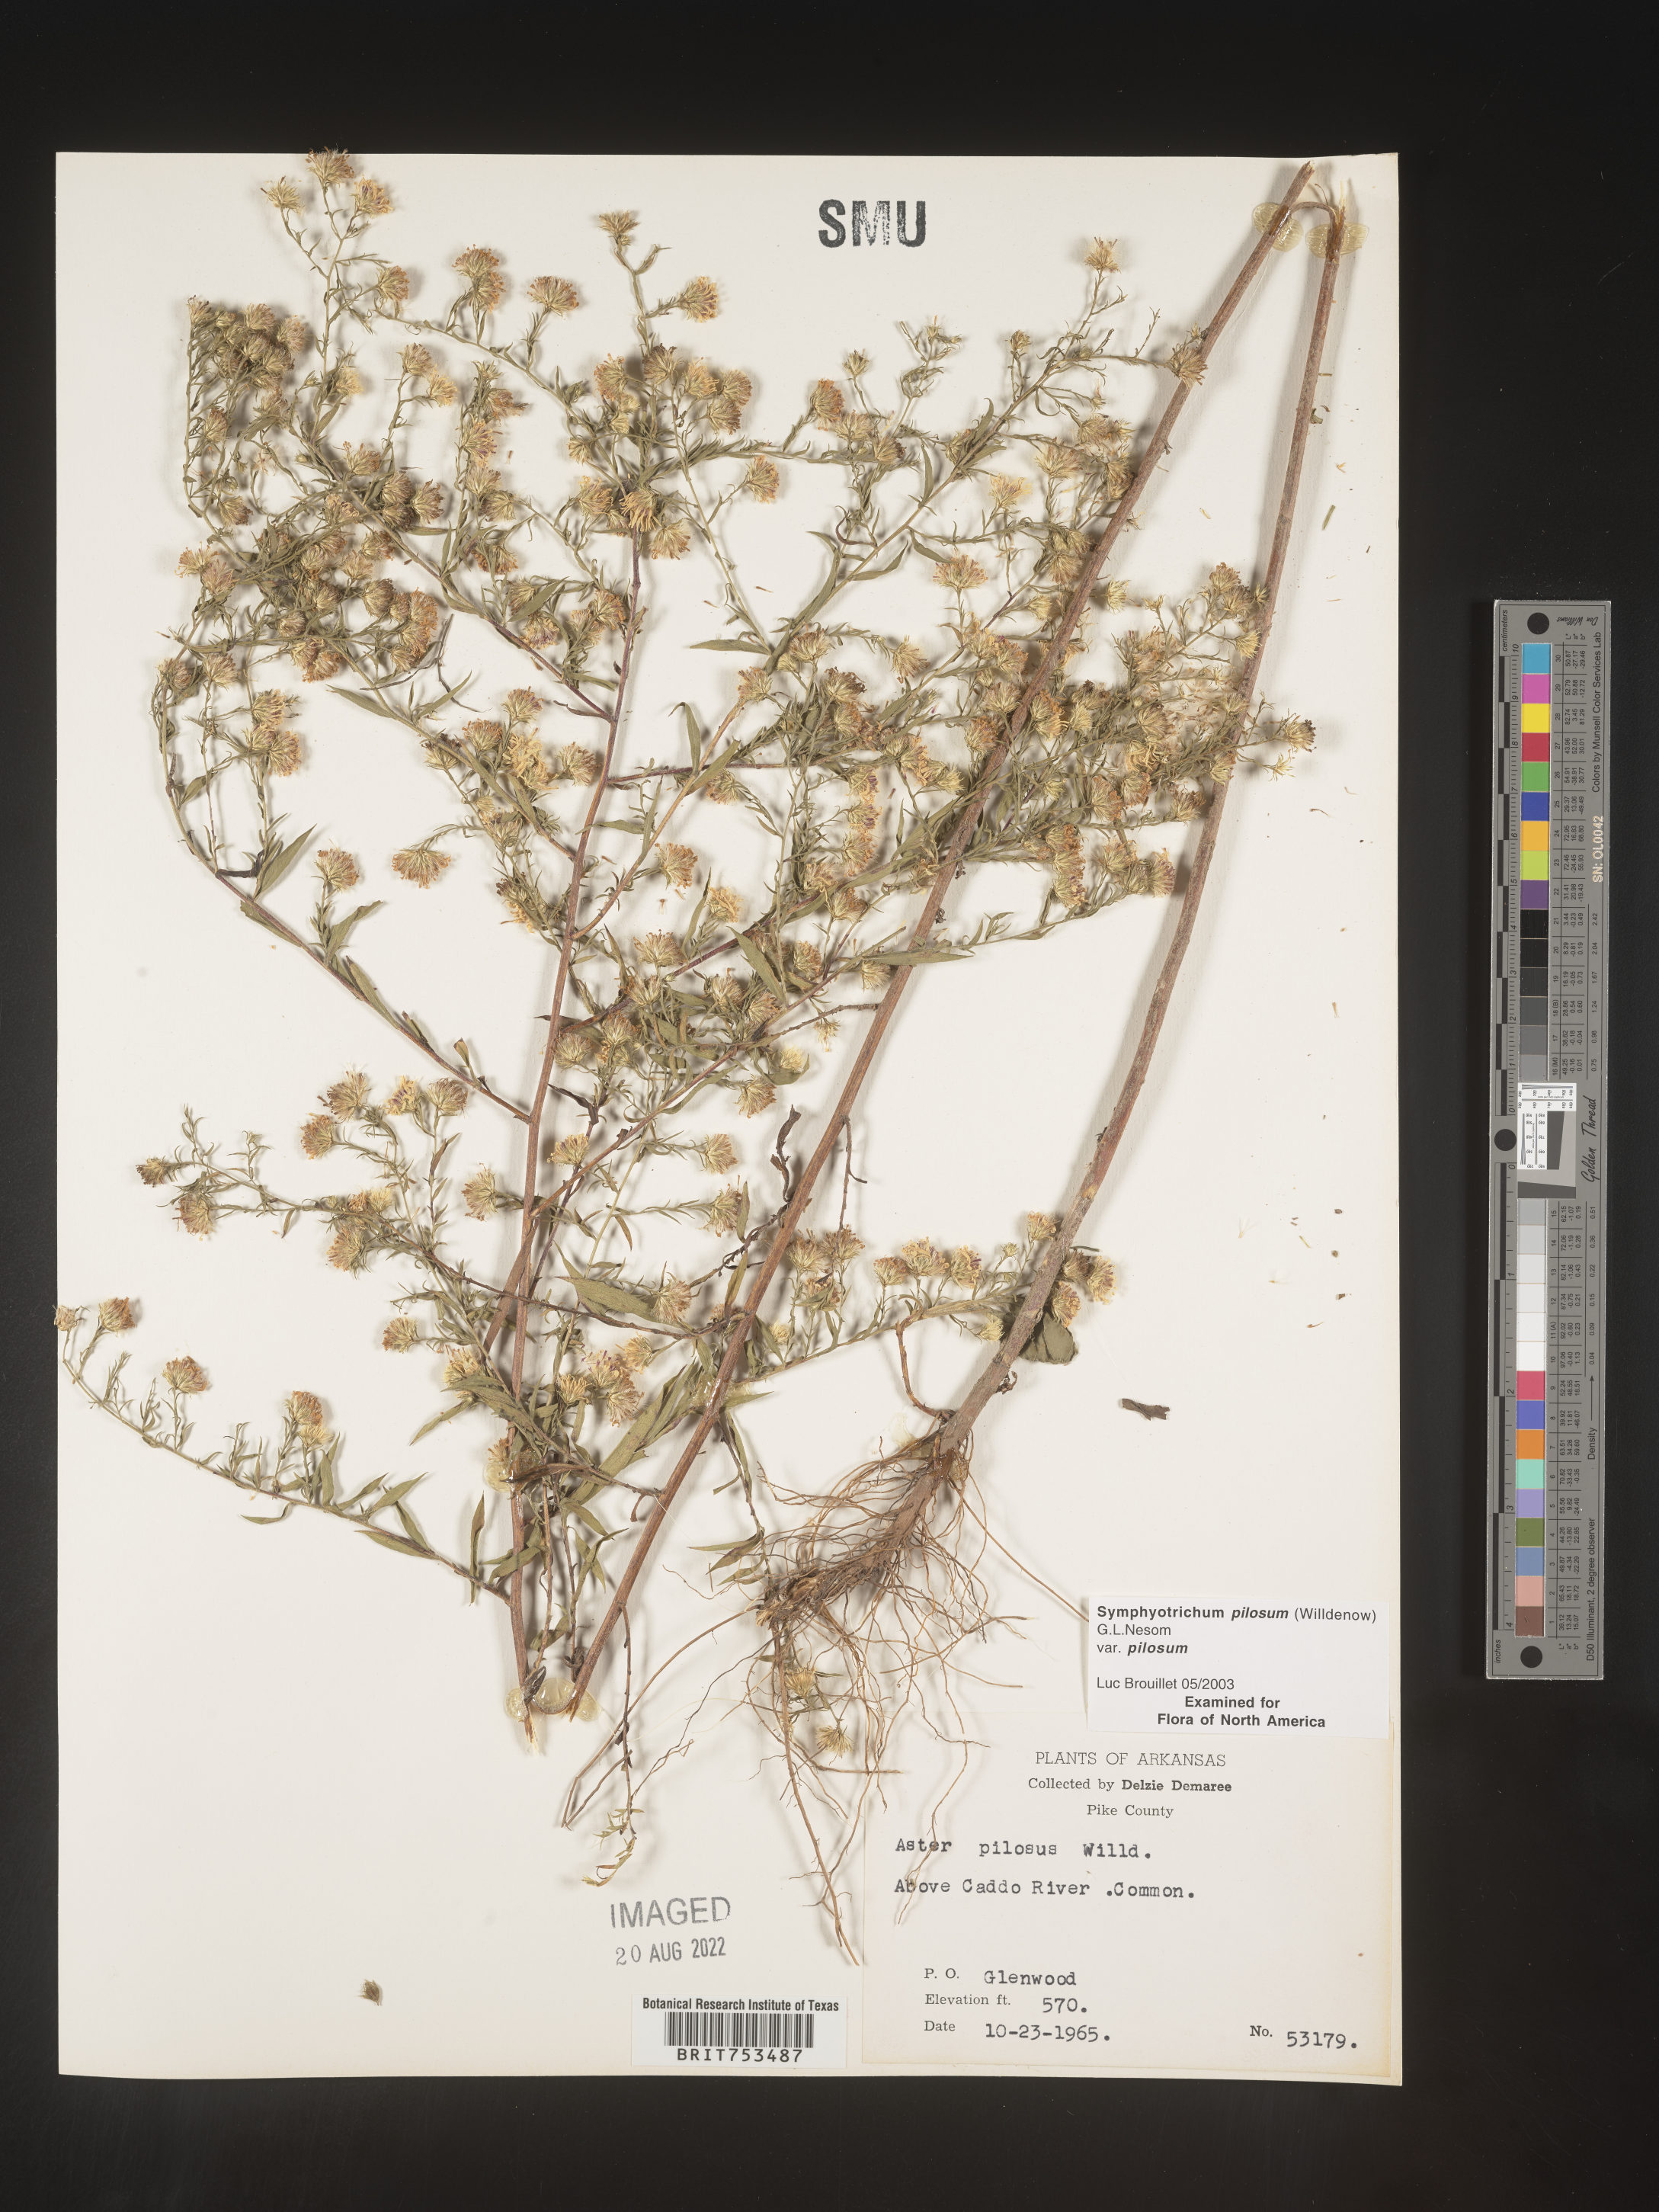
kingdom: Plantae
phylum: Tracheophyta
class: Magnoliopsida
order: Asterales
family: Asteraceae
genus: Symphyotrichum
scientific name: Symphyotrichum pilosum
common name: Awl aster
